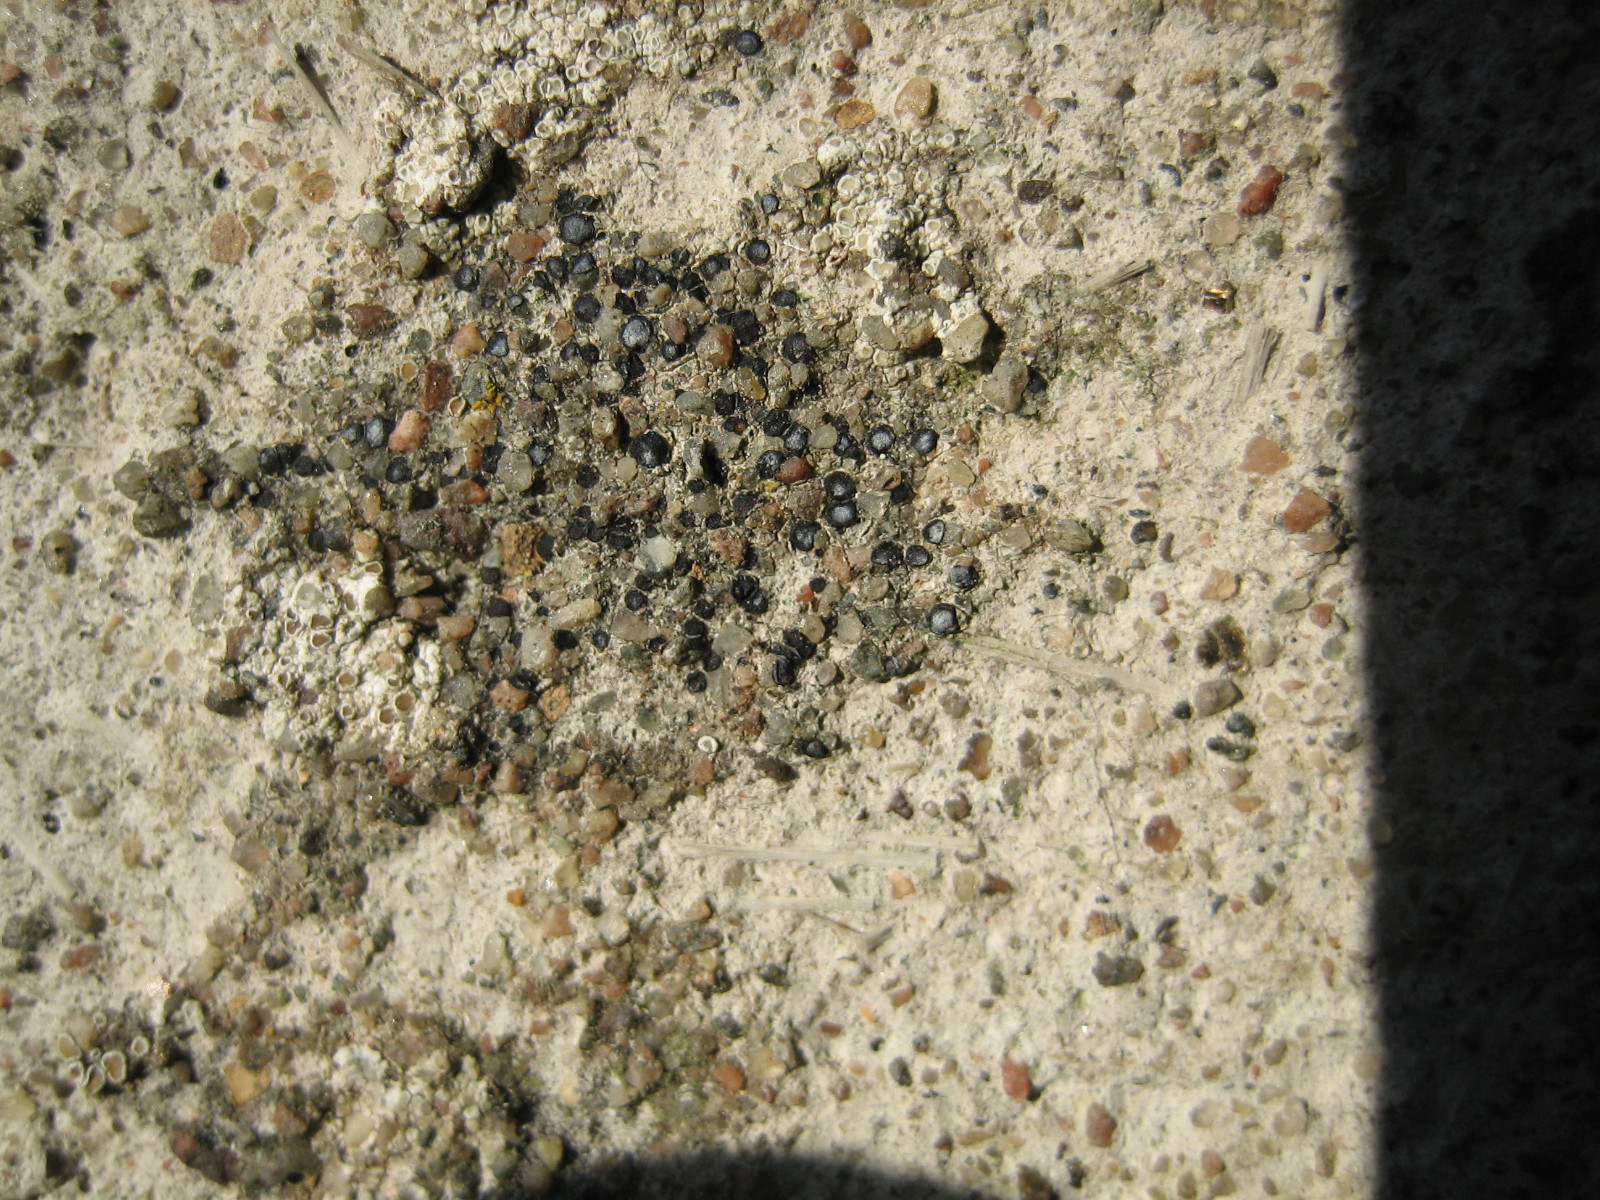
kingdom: Fungi
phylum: Ascomycota
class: Lecanoromycetes
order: Acarosporales
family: Acarosporaceae
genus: Sarcogyne
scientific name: Sarcogyne regularis
